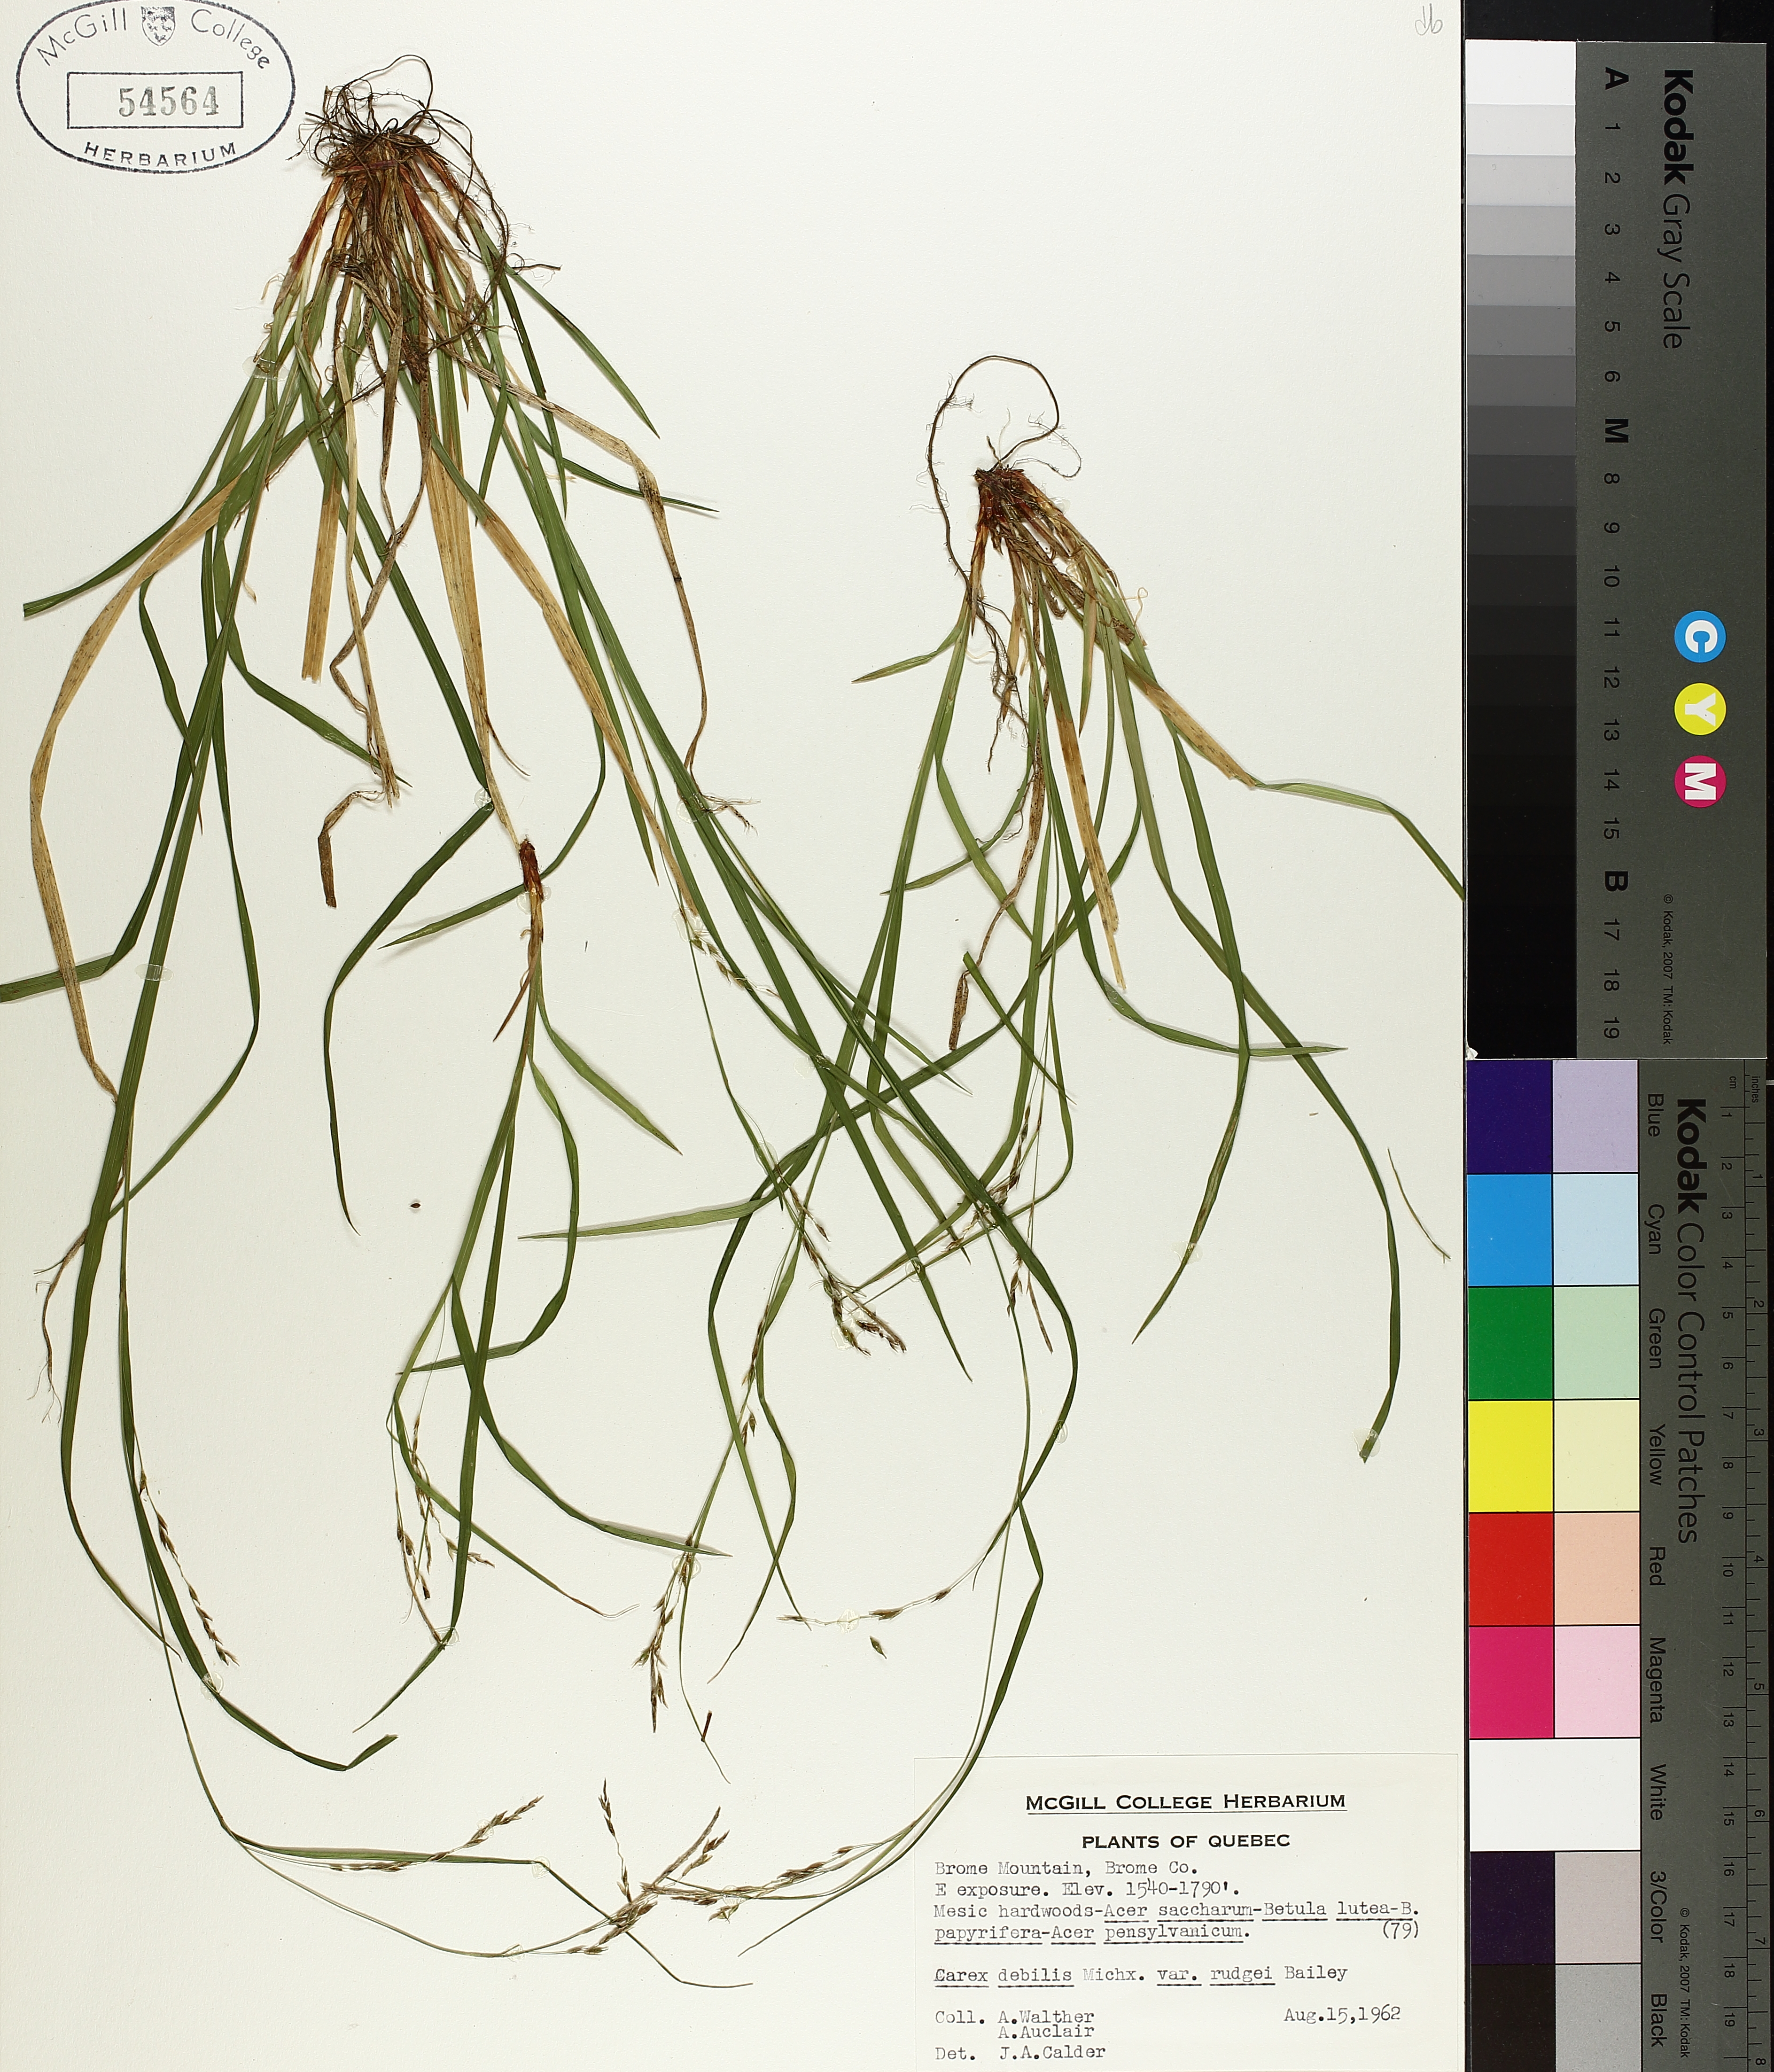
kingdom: Plantae
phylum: Tracheophyta
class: Liliopsida
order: Poales
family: Cyperaceae
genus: Carex
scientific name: Carex debilis
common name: White-edge sedge
